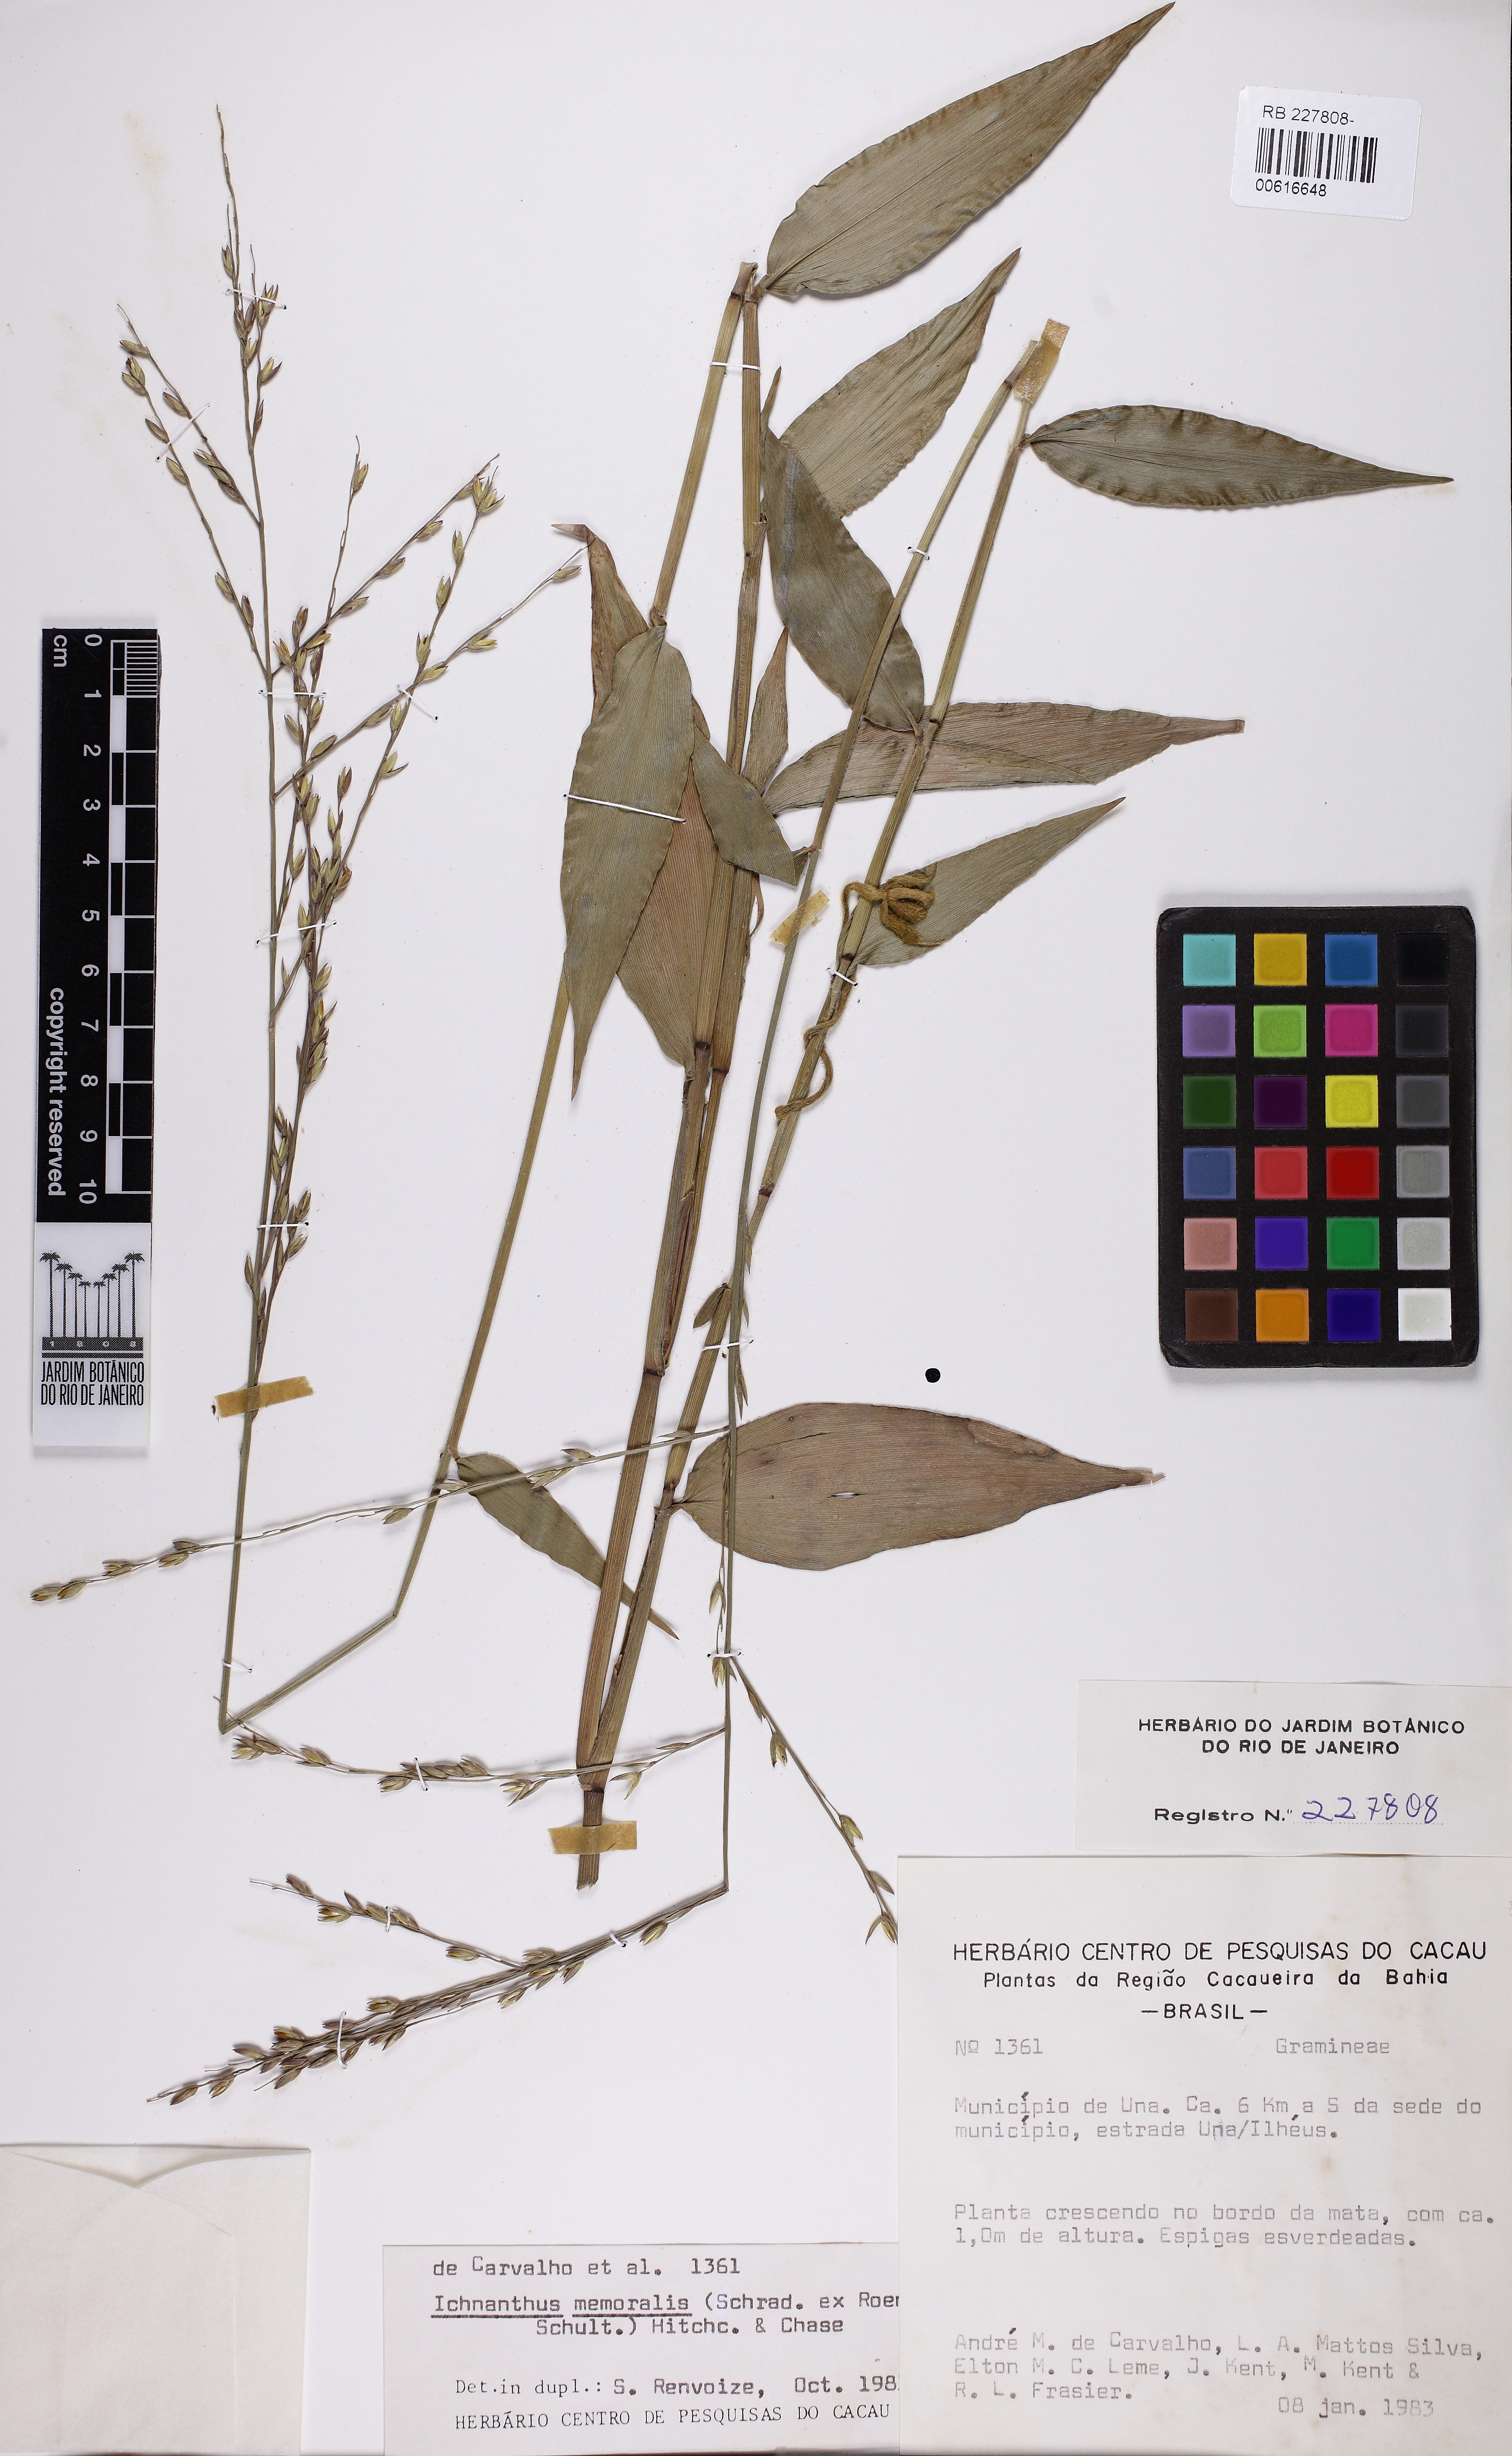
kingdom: Plantae
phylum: Tracheophyta
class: Liliopsida
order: Poales
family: Poaceae
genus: Ichnanthus
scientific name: Ichnanthus nemoralis
